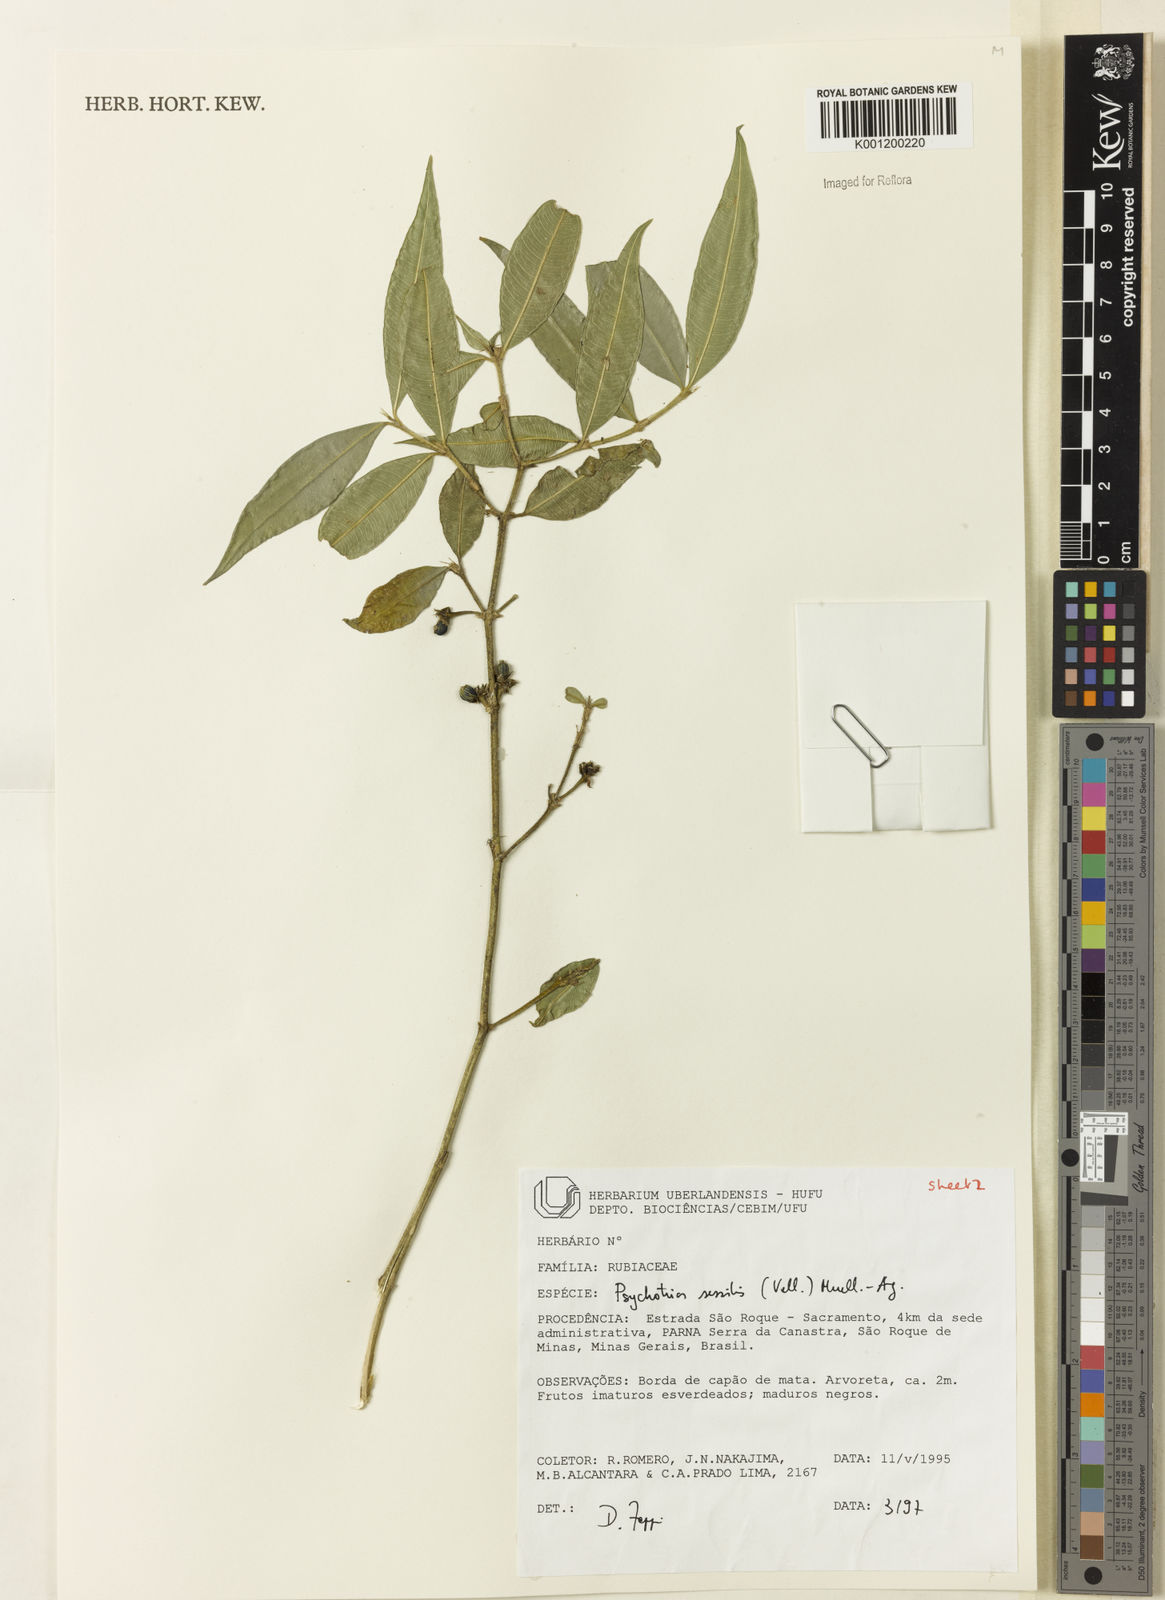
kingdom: Plantae
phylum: Tracheophyta
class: Magnoliopsida
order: Gentianales
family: Rubiaceae
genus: Rudgea
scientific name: Rudgea sessilis
